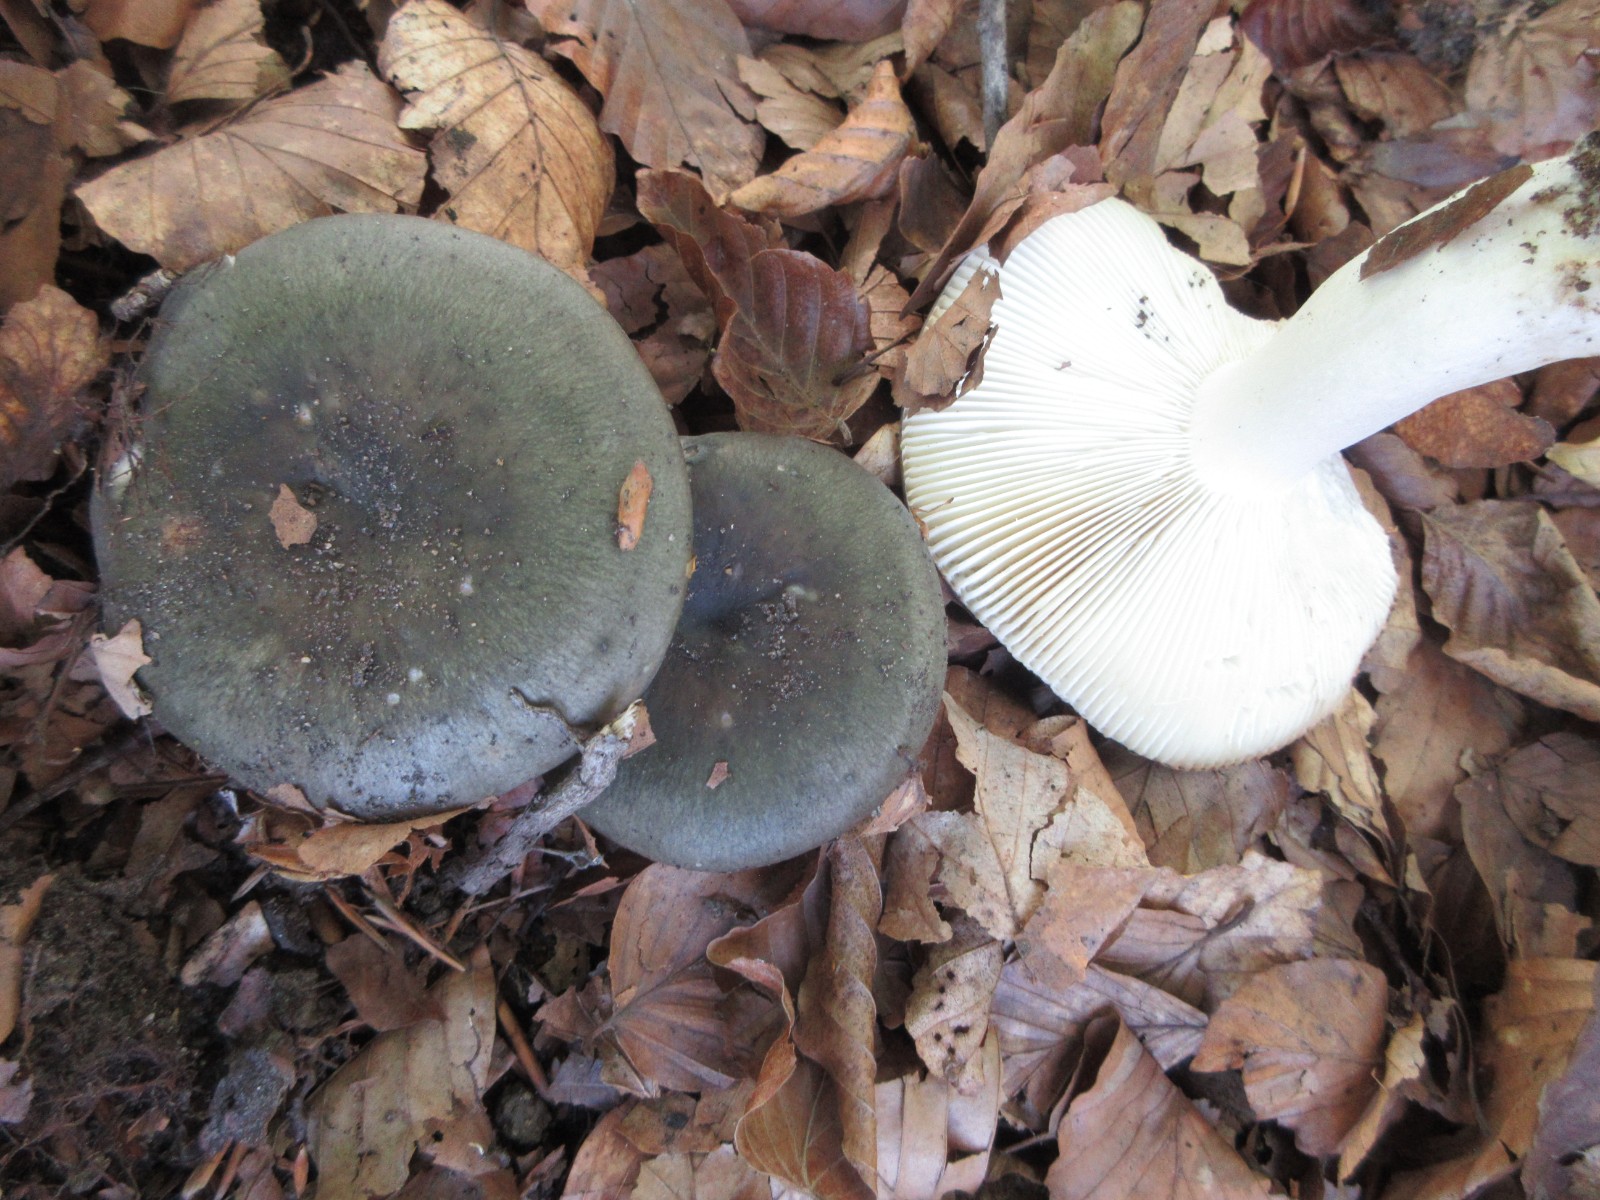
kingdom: Fungi
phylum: Basidiomycota
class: Agaricomycetes
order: Russulales
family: Russulaceae
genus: Russula
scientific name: Russula cyanoxantha
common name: broget skørhat
